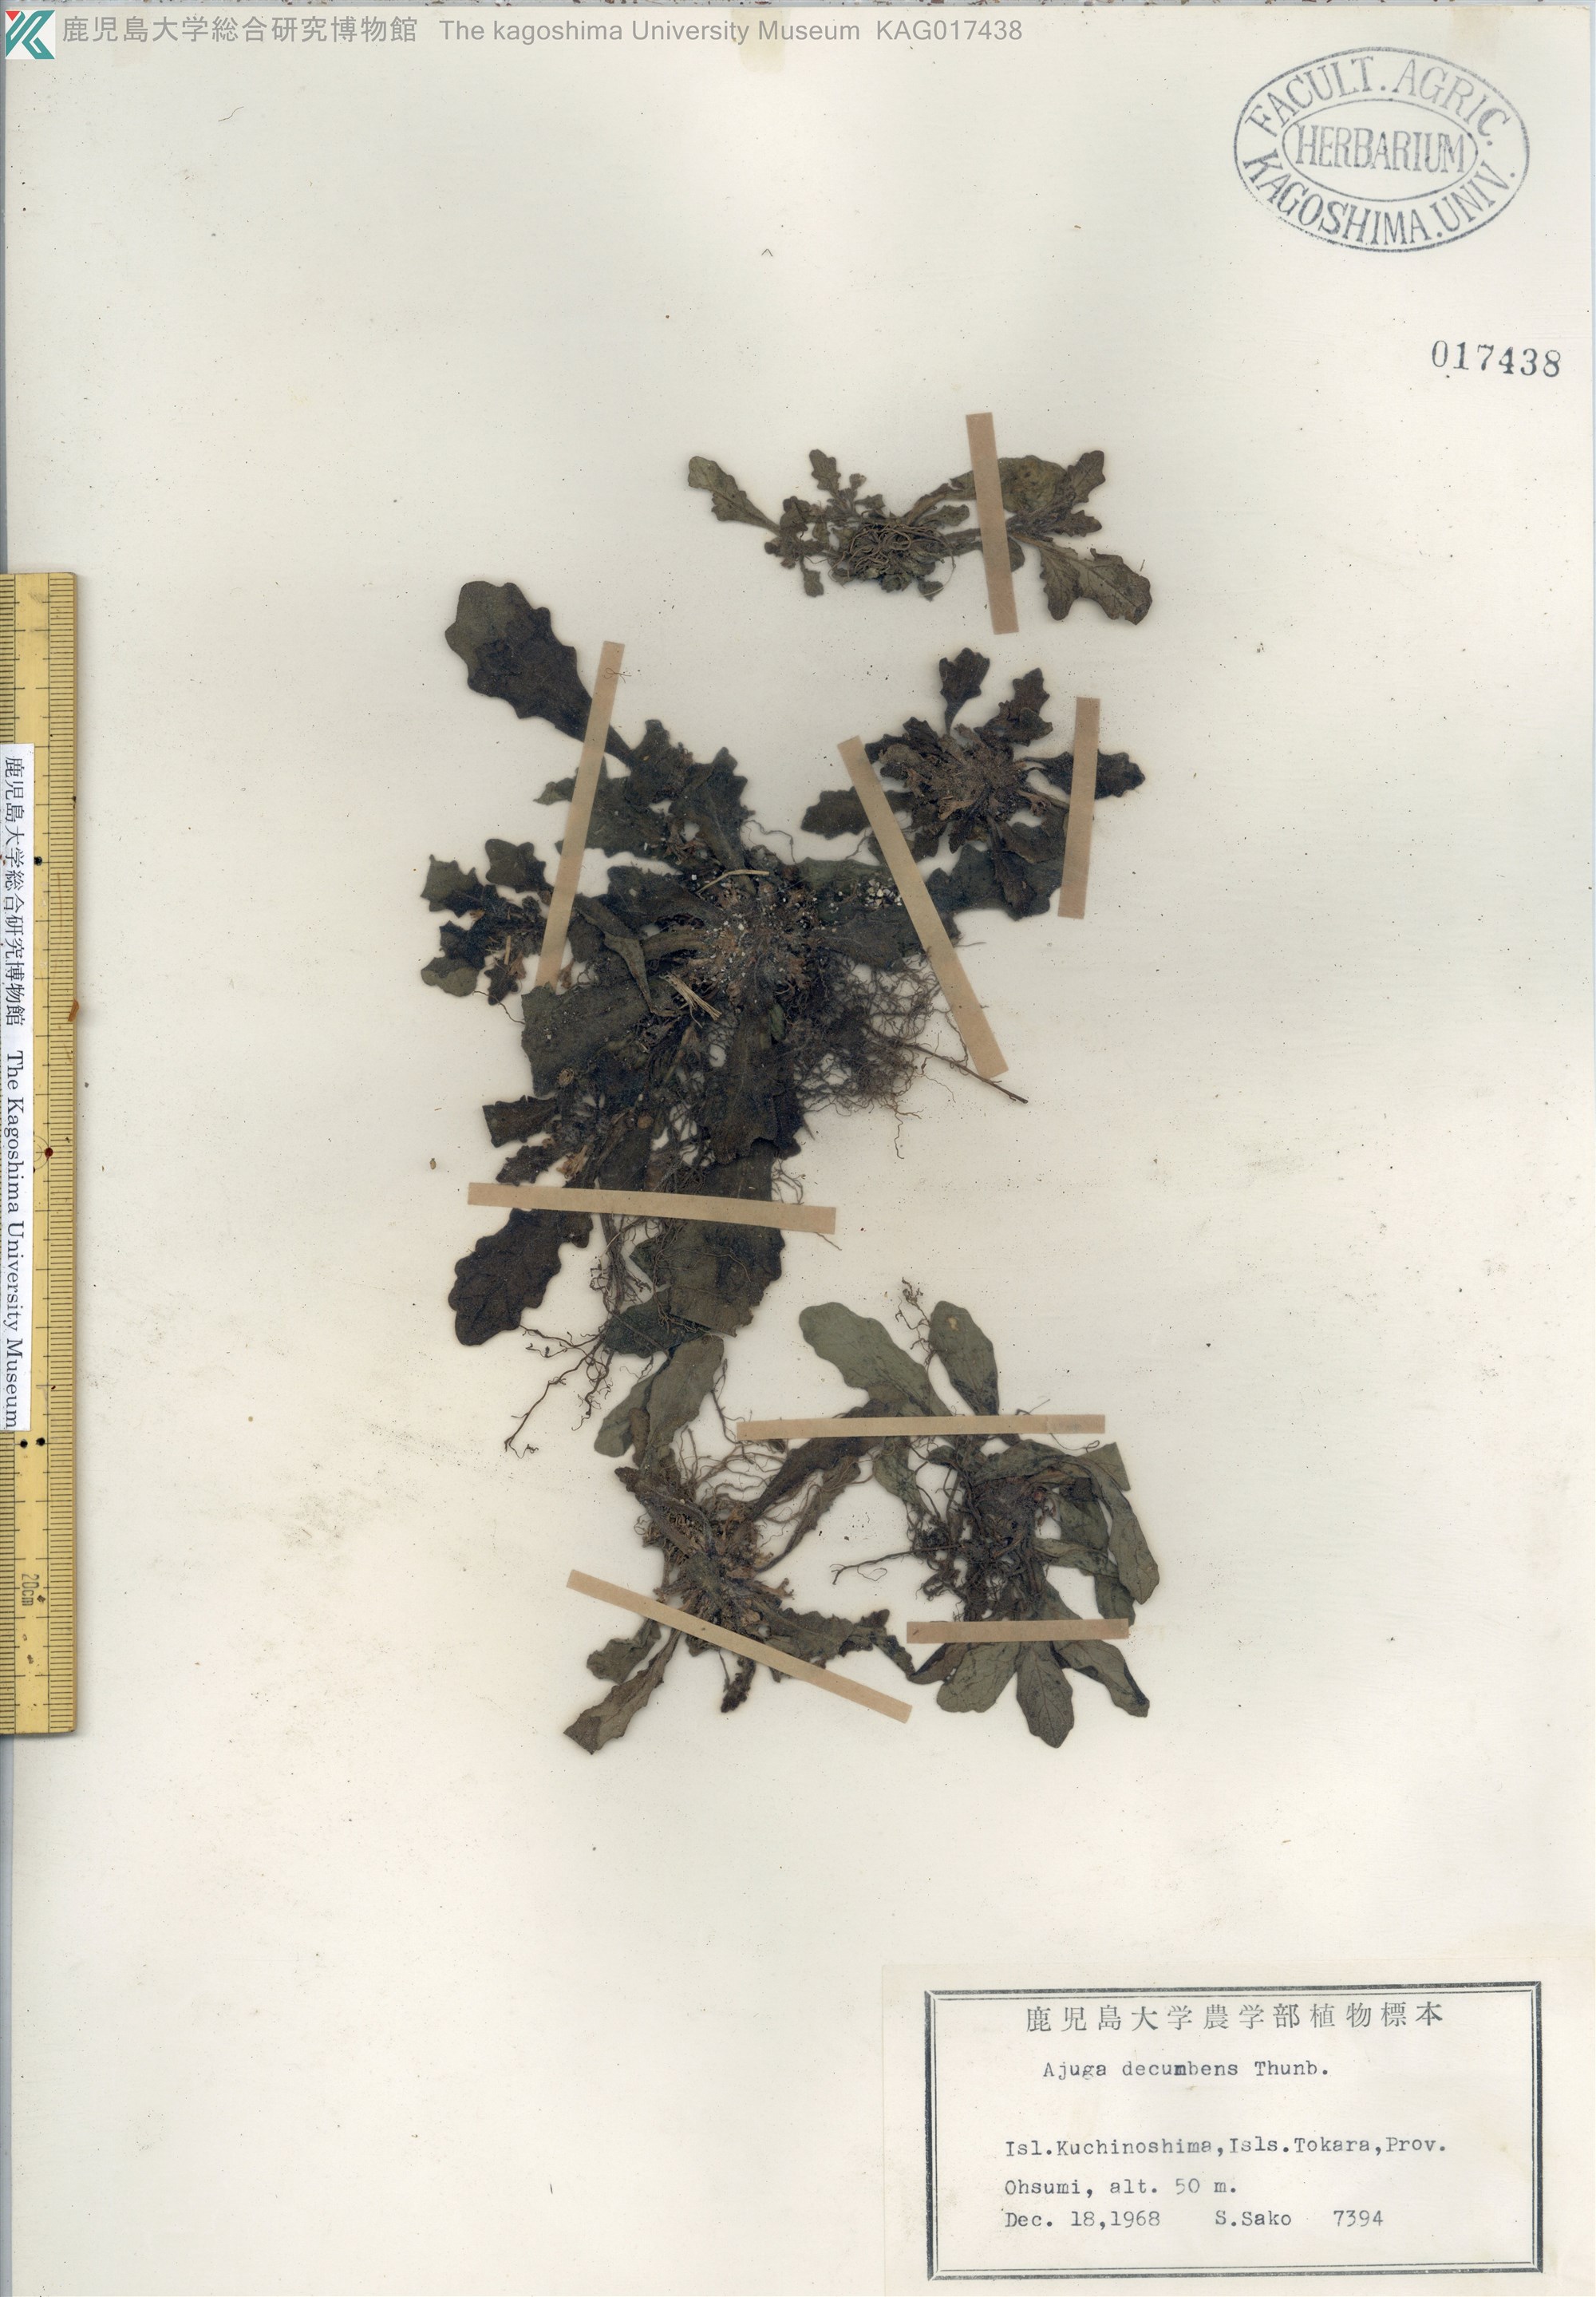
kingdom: Plantae
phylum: Tracheophyta
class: Magnoliopsida
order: Lamiales
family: Lamiaceae
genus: Ajuga
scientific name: Ajuga decumbens
